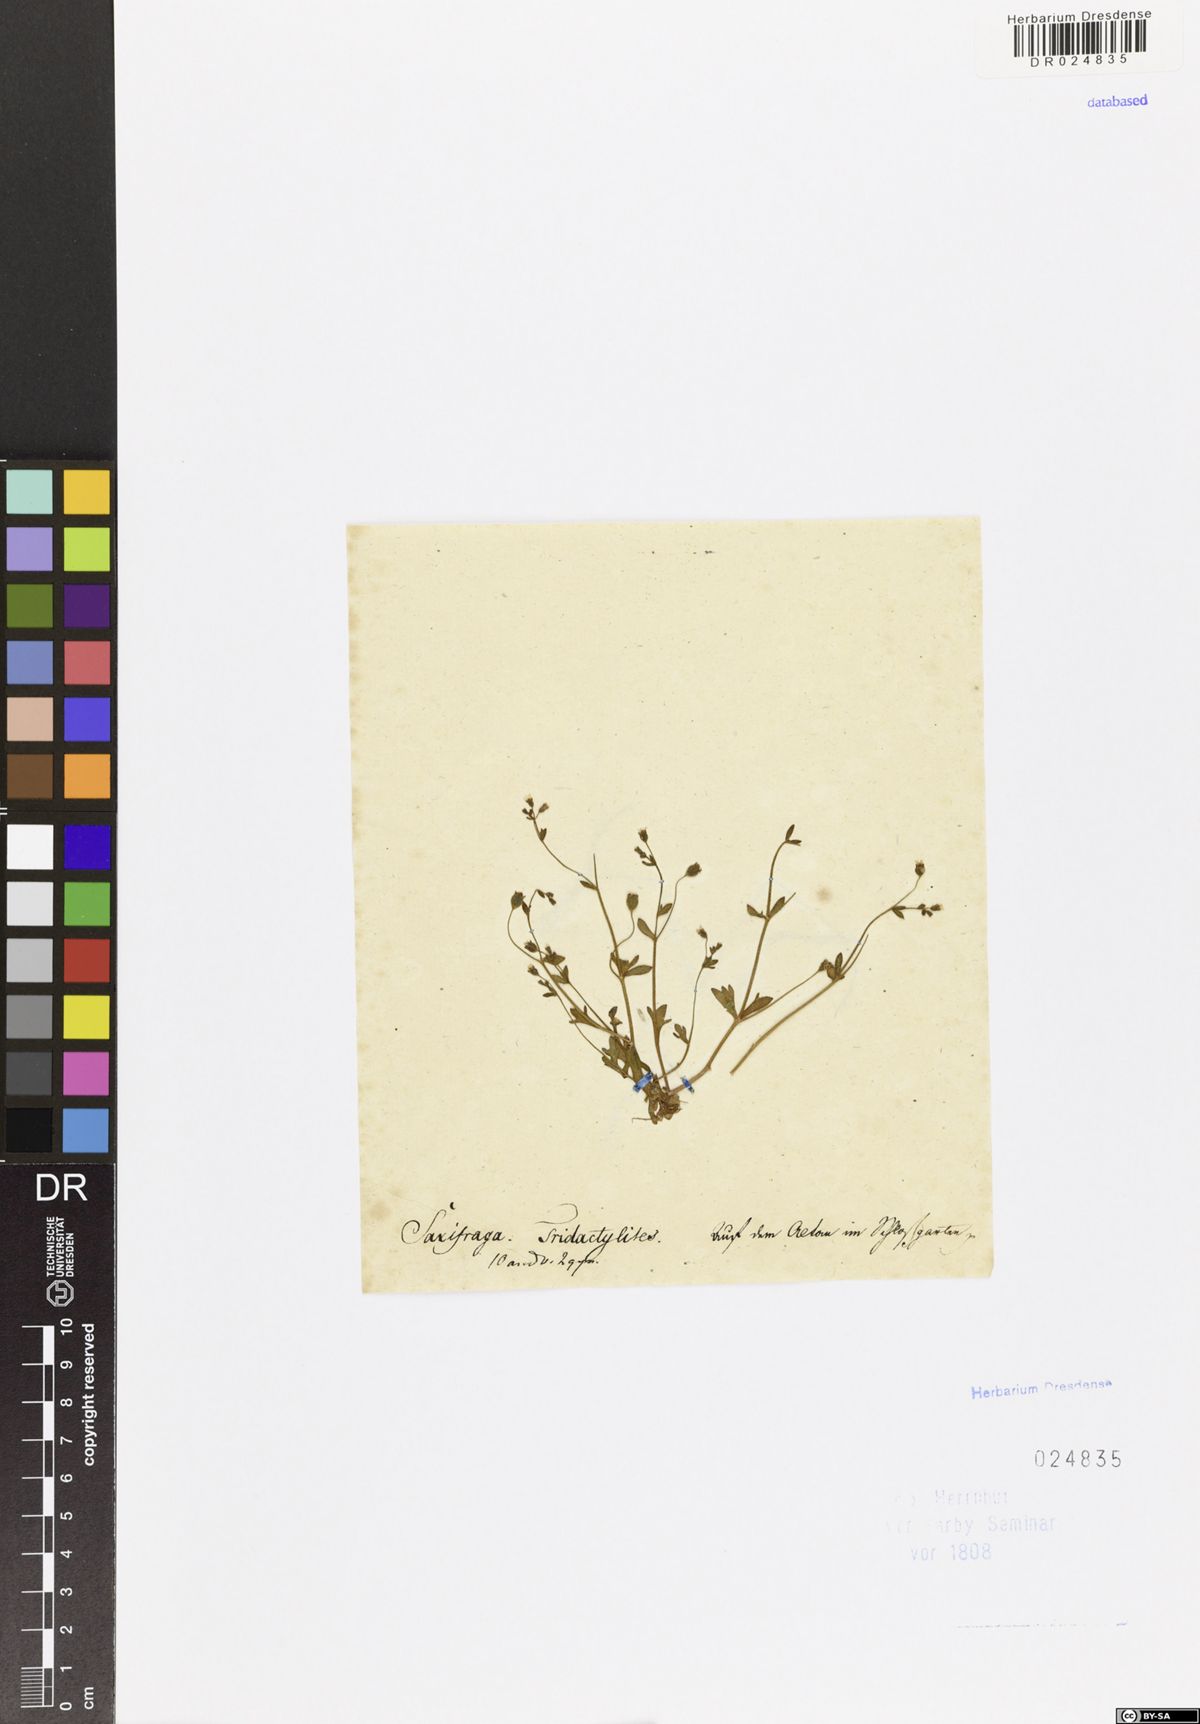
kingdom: Plantae
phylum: Tracheophyta
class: Magnoliopsida
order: Saxifragales
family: Saxifragaceae
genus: Saxifraga
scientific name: Saxifraga tridactylites
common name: Rue-leaved saxifrage
